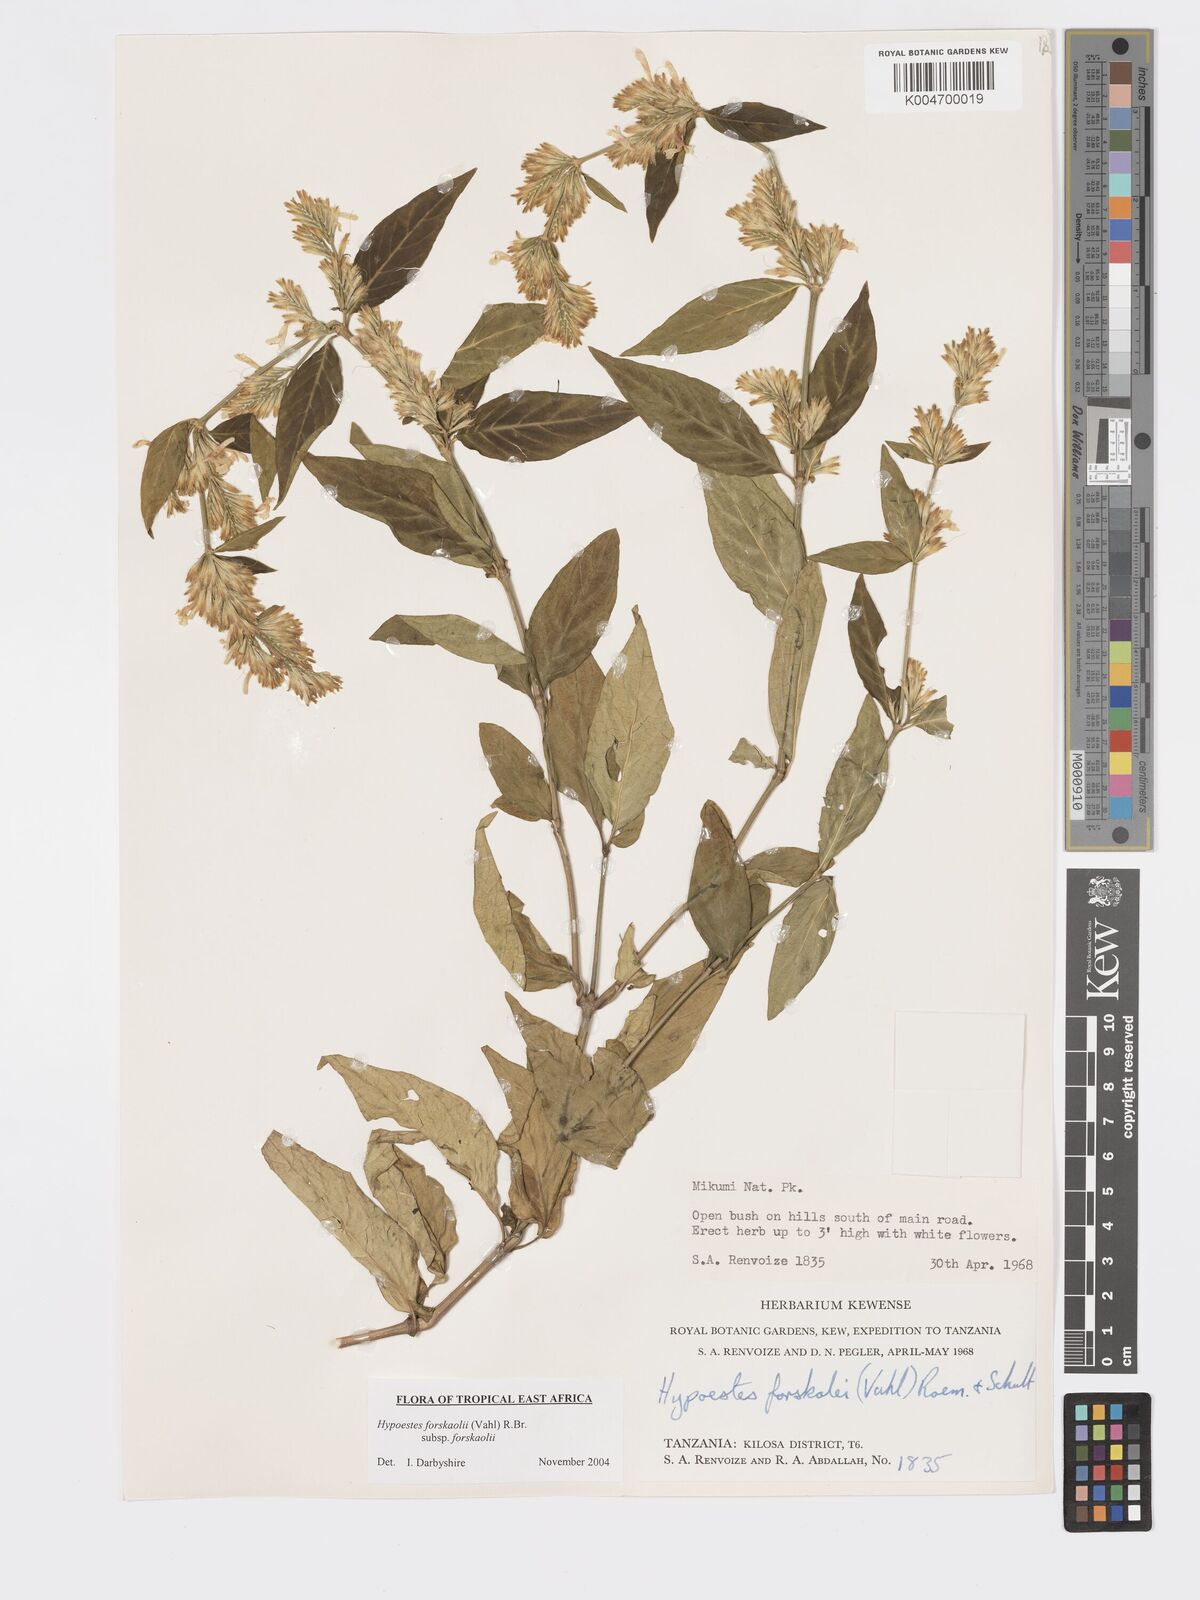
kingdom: Plantae
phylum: Tracheophyta
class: Magnoliopsida
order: Lamiales
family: Acanthaceae
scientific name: Acanthaceae
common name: Acanthaceae
